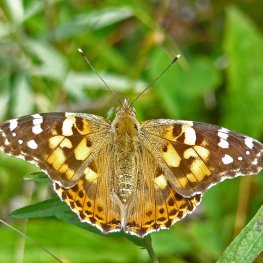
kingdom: Animalia
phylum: Arthropoda
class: Insecta
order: Lepidoptera
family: Nymphalidae
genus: Vanessa
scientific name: Vanessa cardui
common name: Painted Lady
